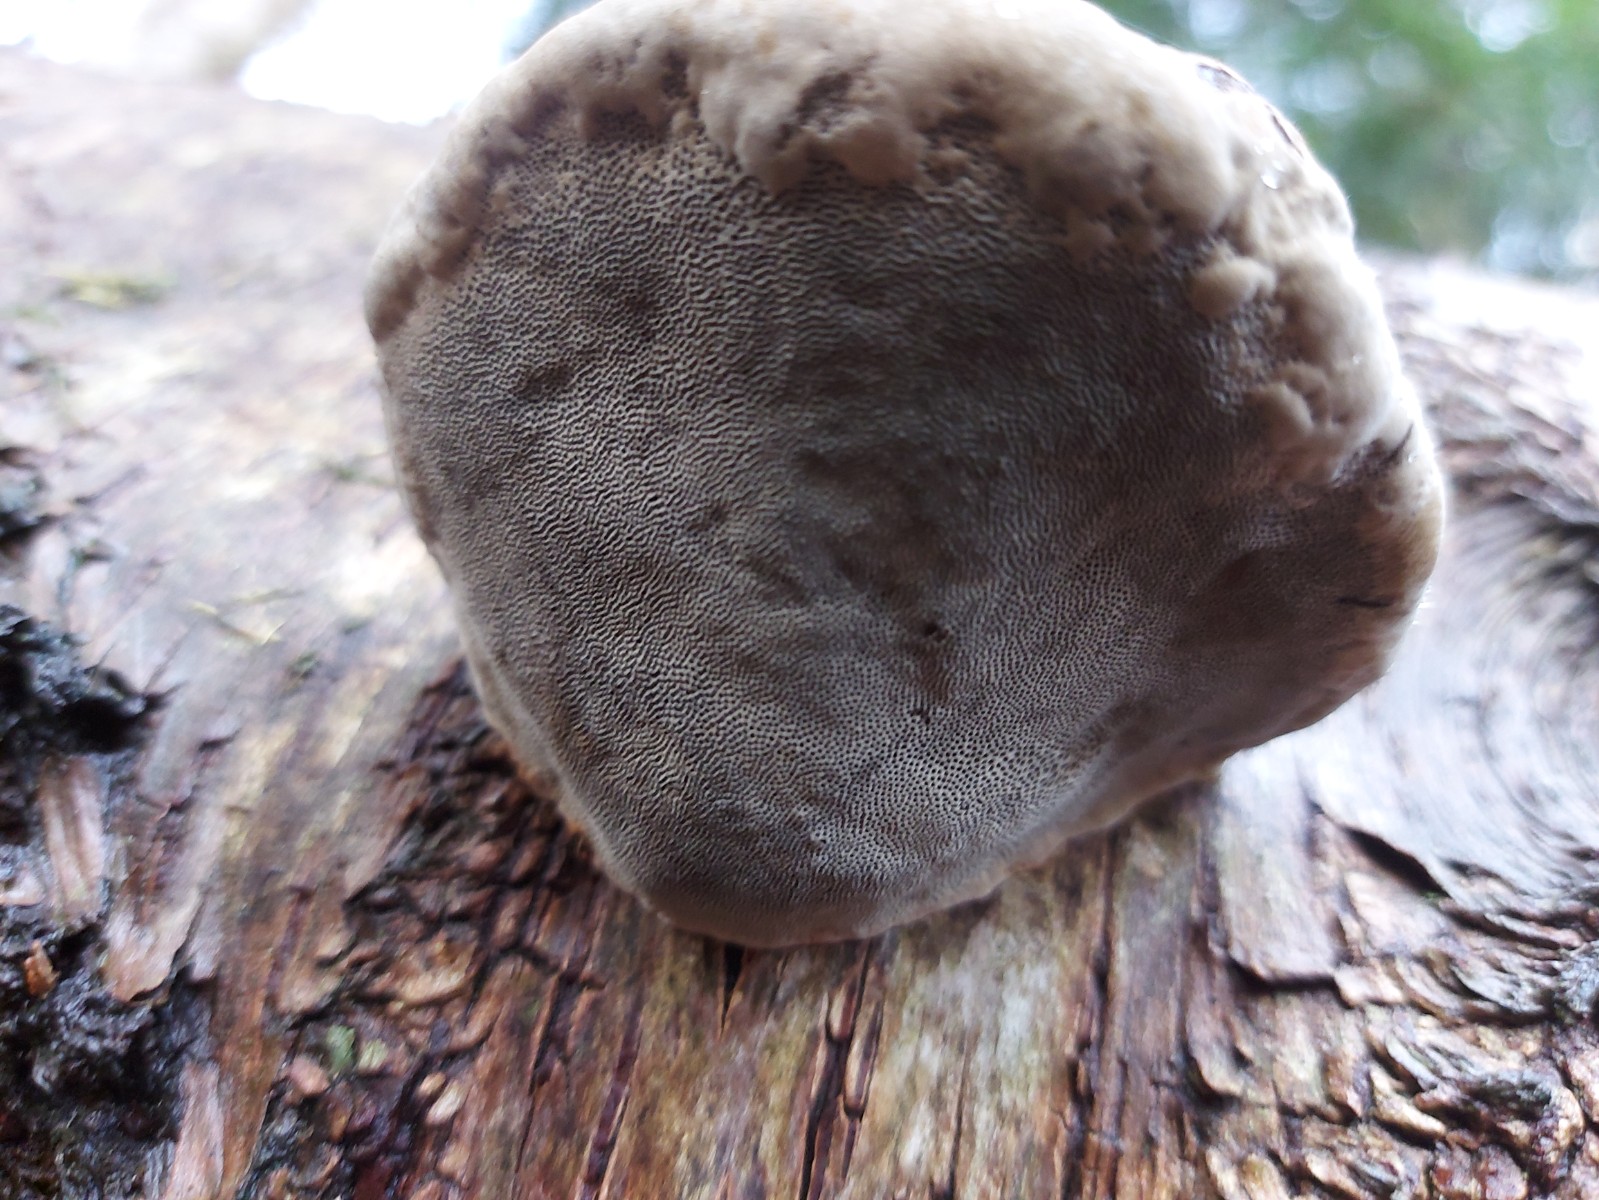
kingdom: Fungi
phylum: Basidiomycota
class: Agaricomycetes
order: Polyporales
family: Polyporaceae
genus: Fomes
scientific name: Fomes fomentarius
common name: tøndersvamp
